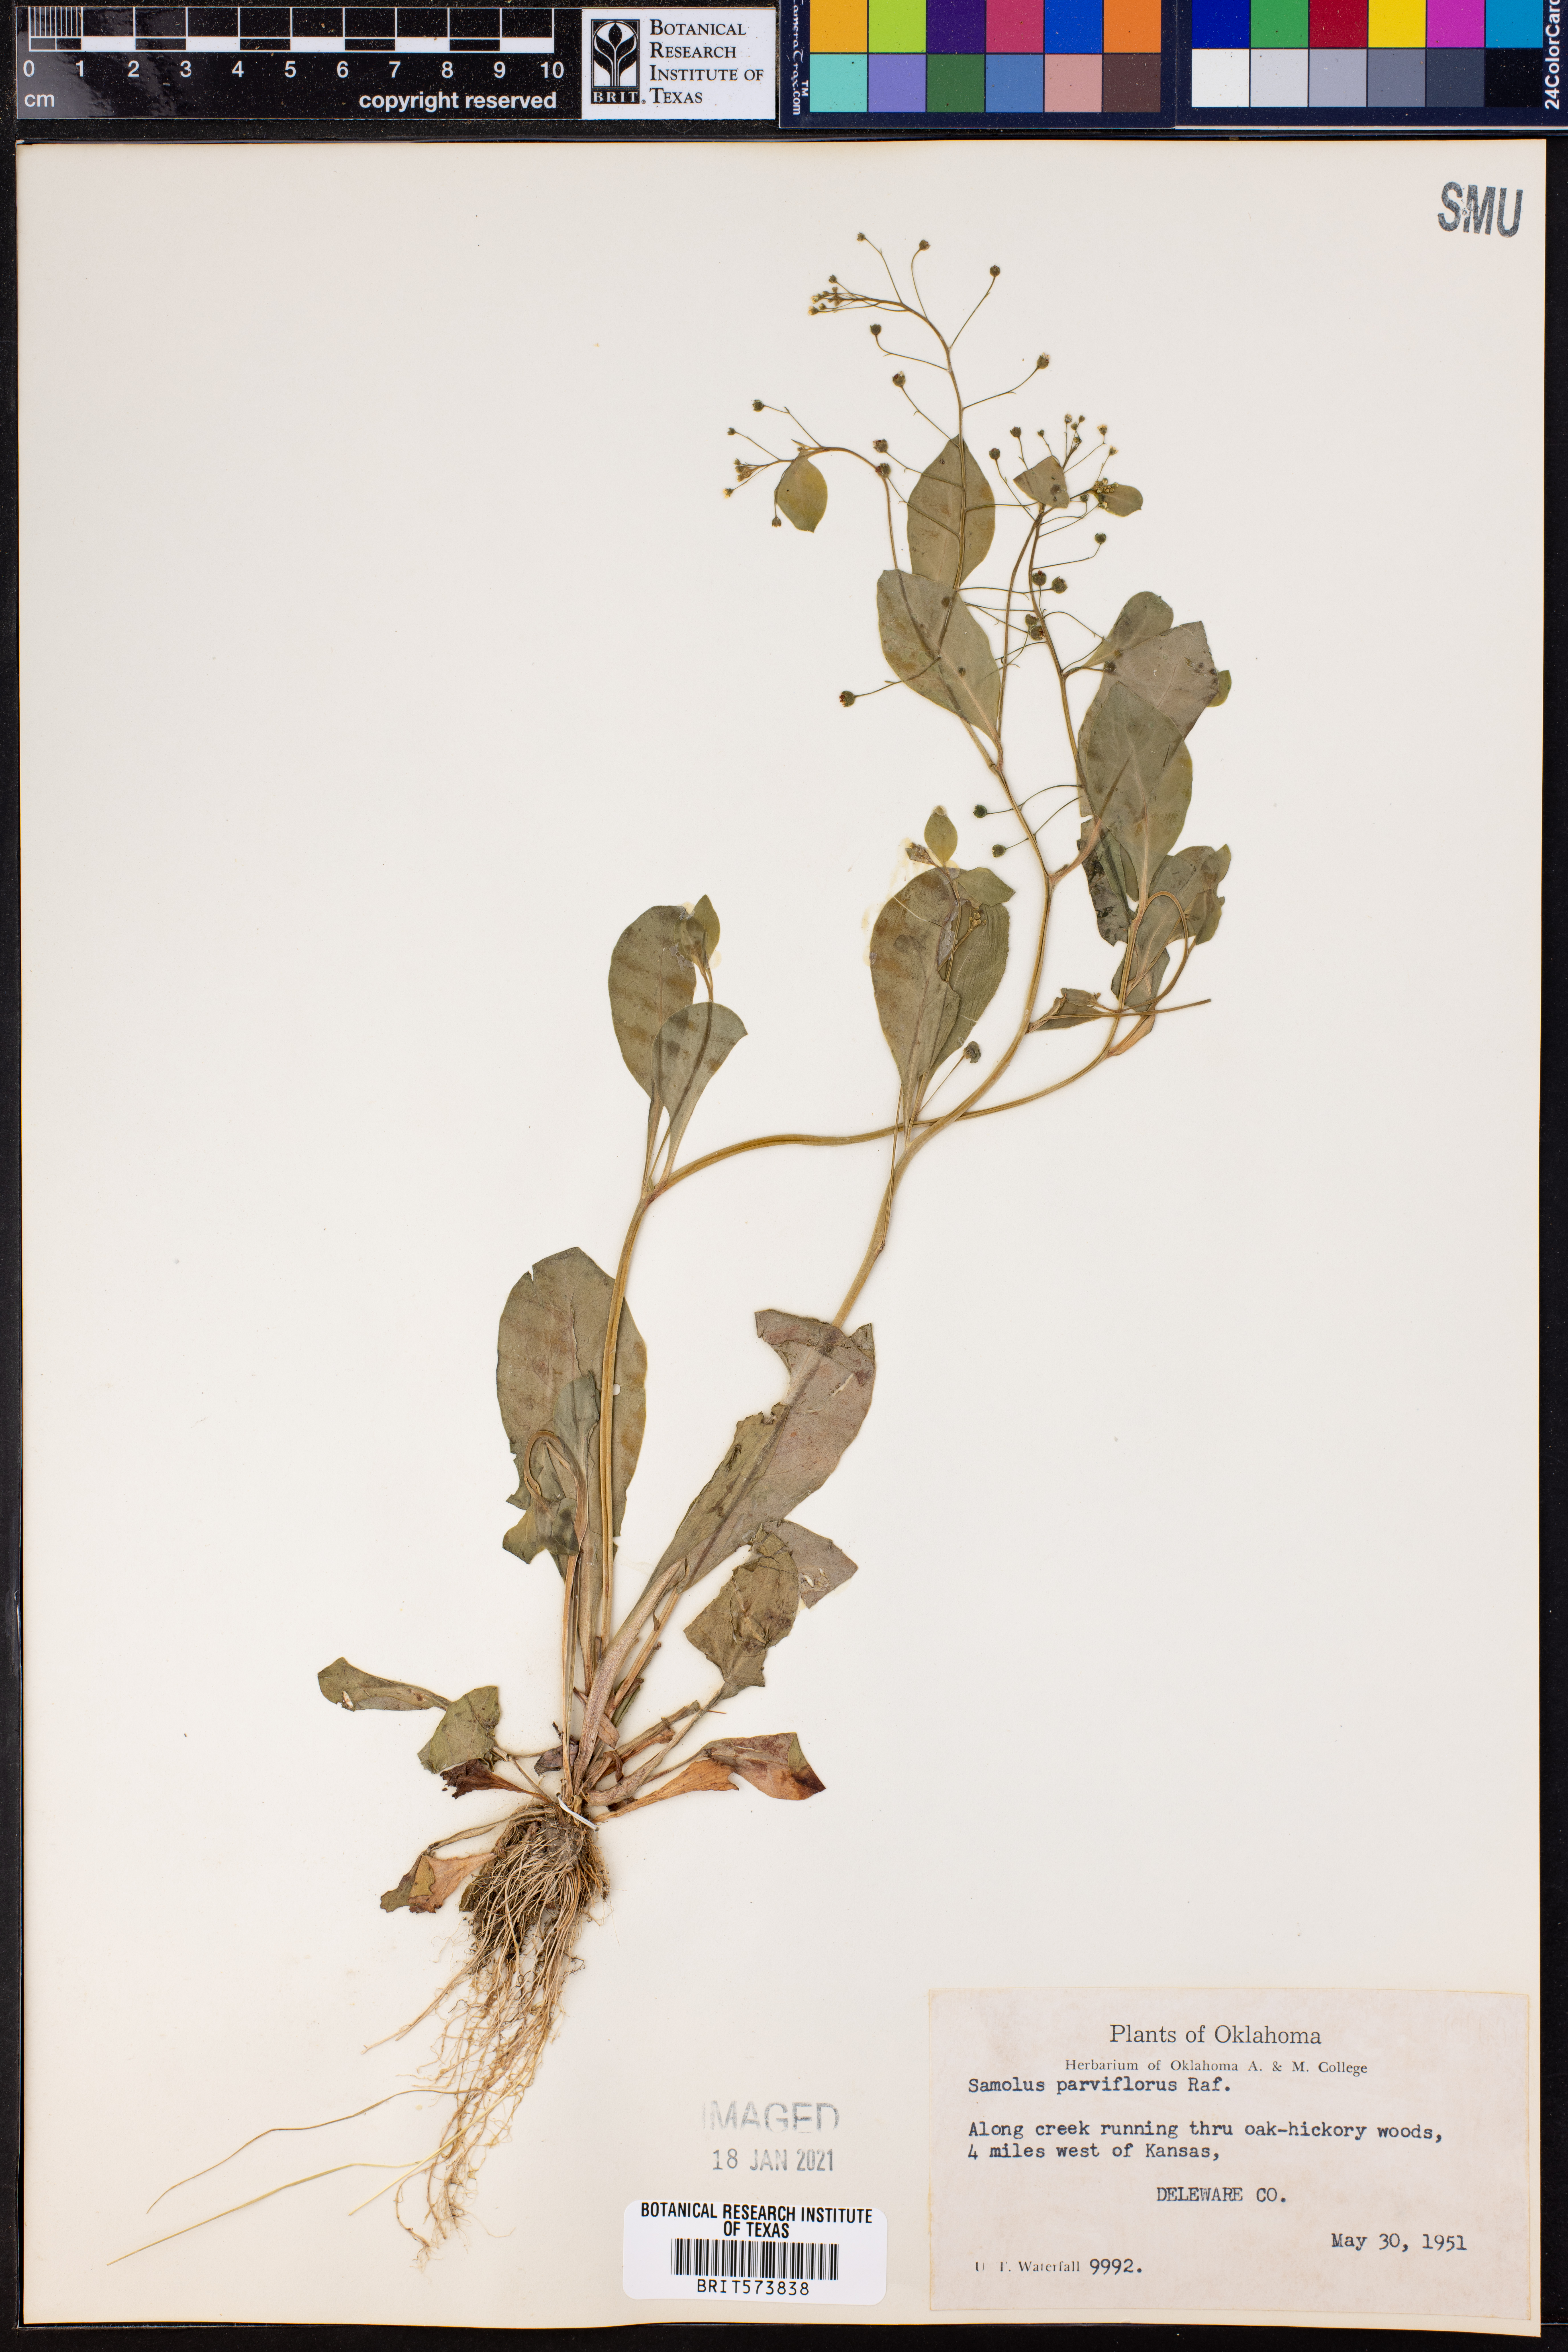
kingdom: Plantae
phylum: Tracheophyta
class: Magnoliopsida
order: Ericales
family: Primulaceae
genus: Samolus
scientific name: Samolus parviflorus
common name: False water pimpernel
